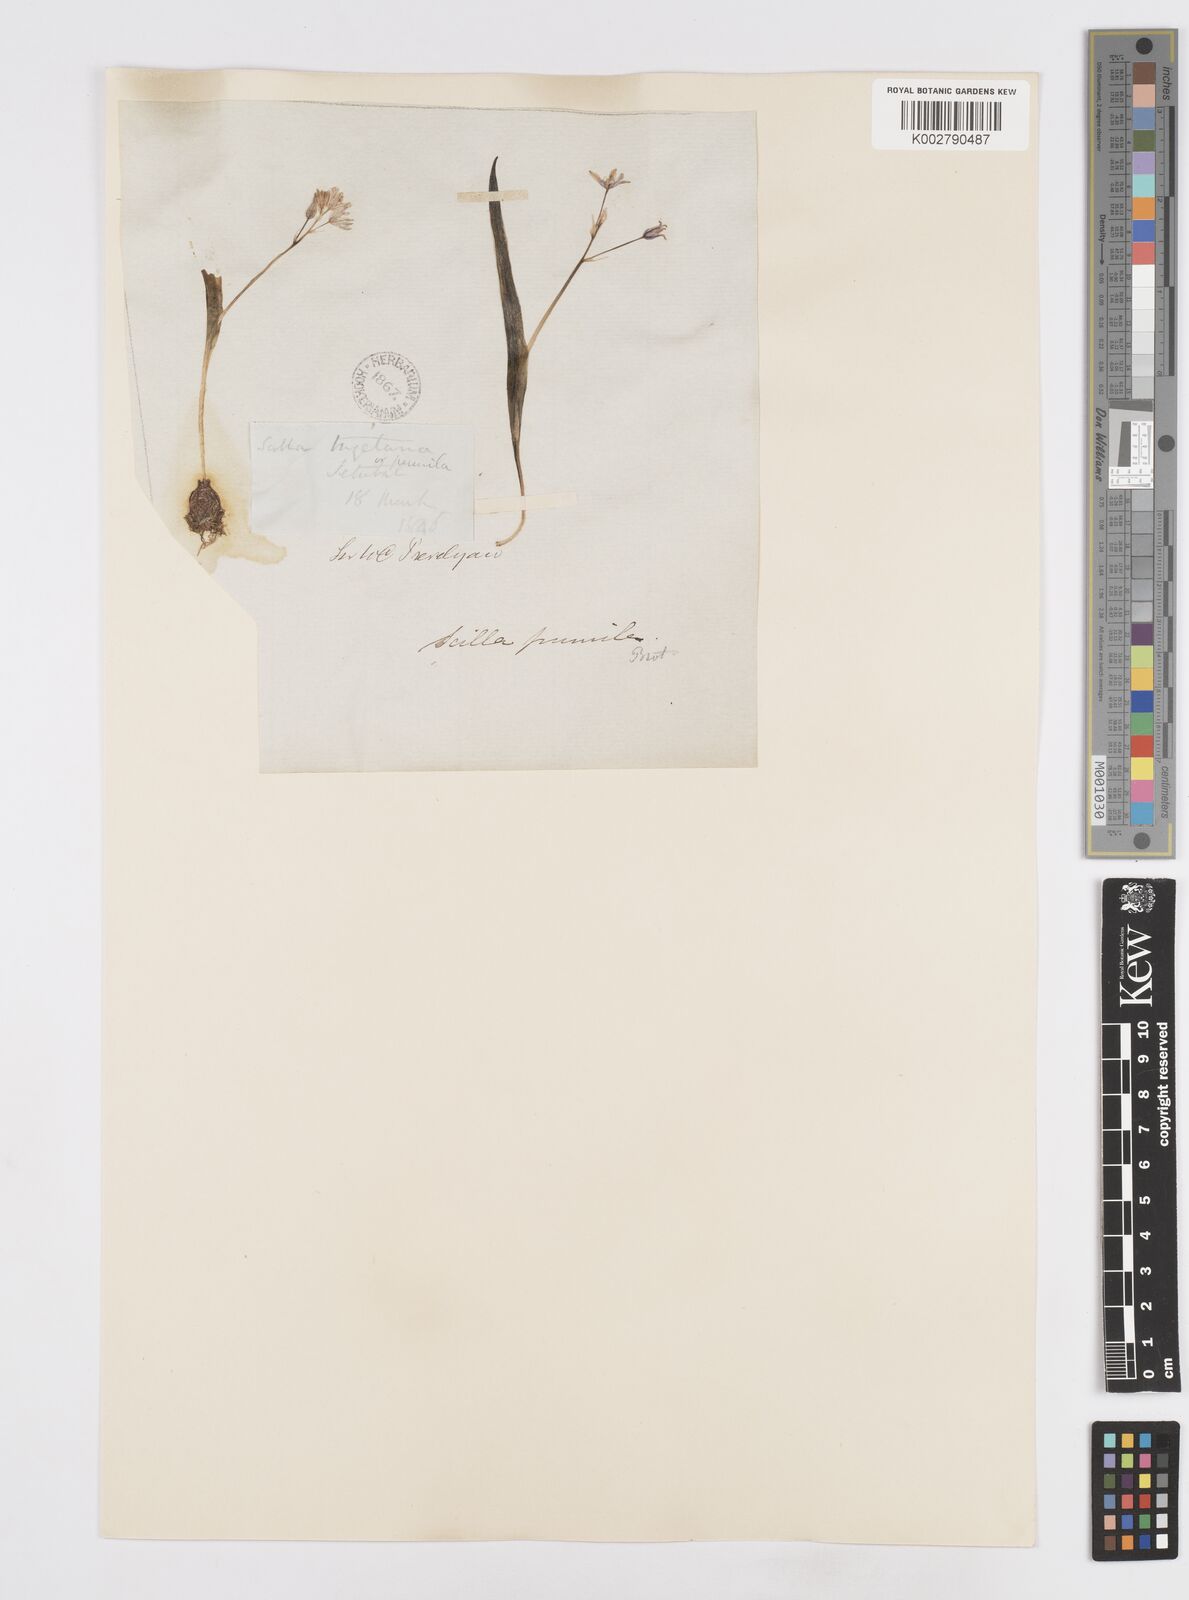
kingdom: Plantae
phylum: Tracheophyta
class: Liliopsida
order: Asparagales
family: Asparagaceae
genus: Scilla
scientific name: Scilla monophyllos
